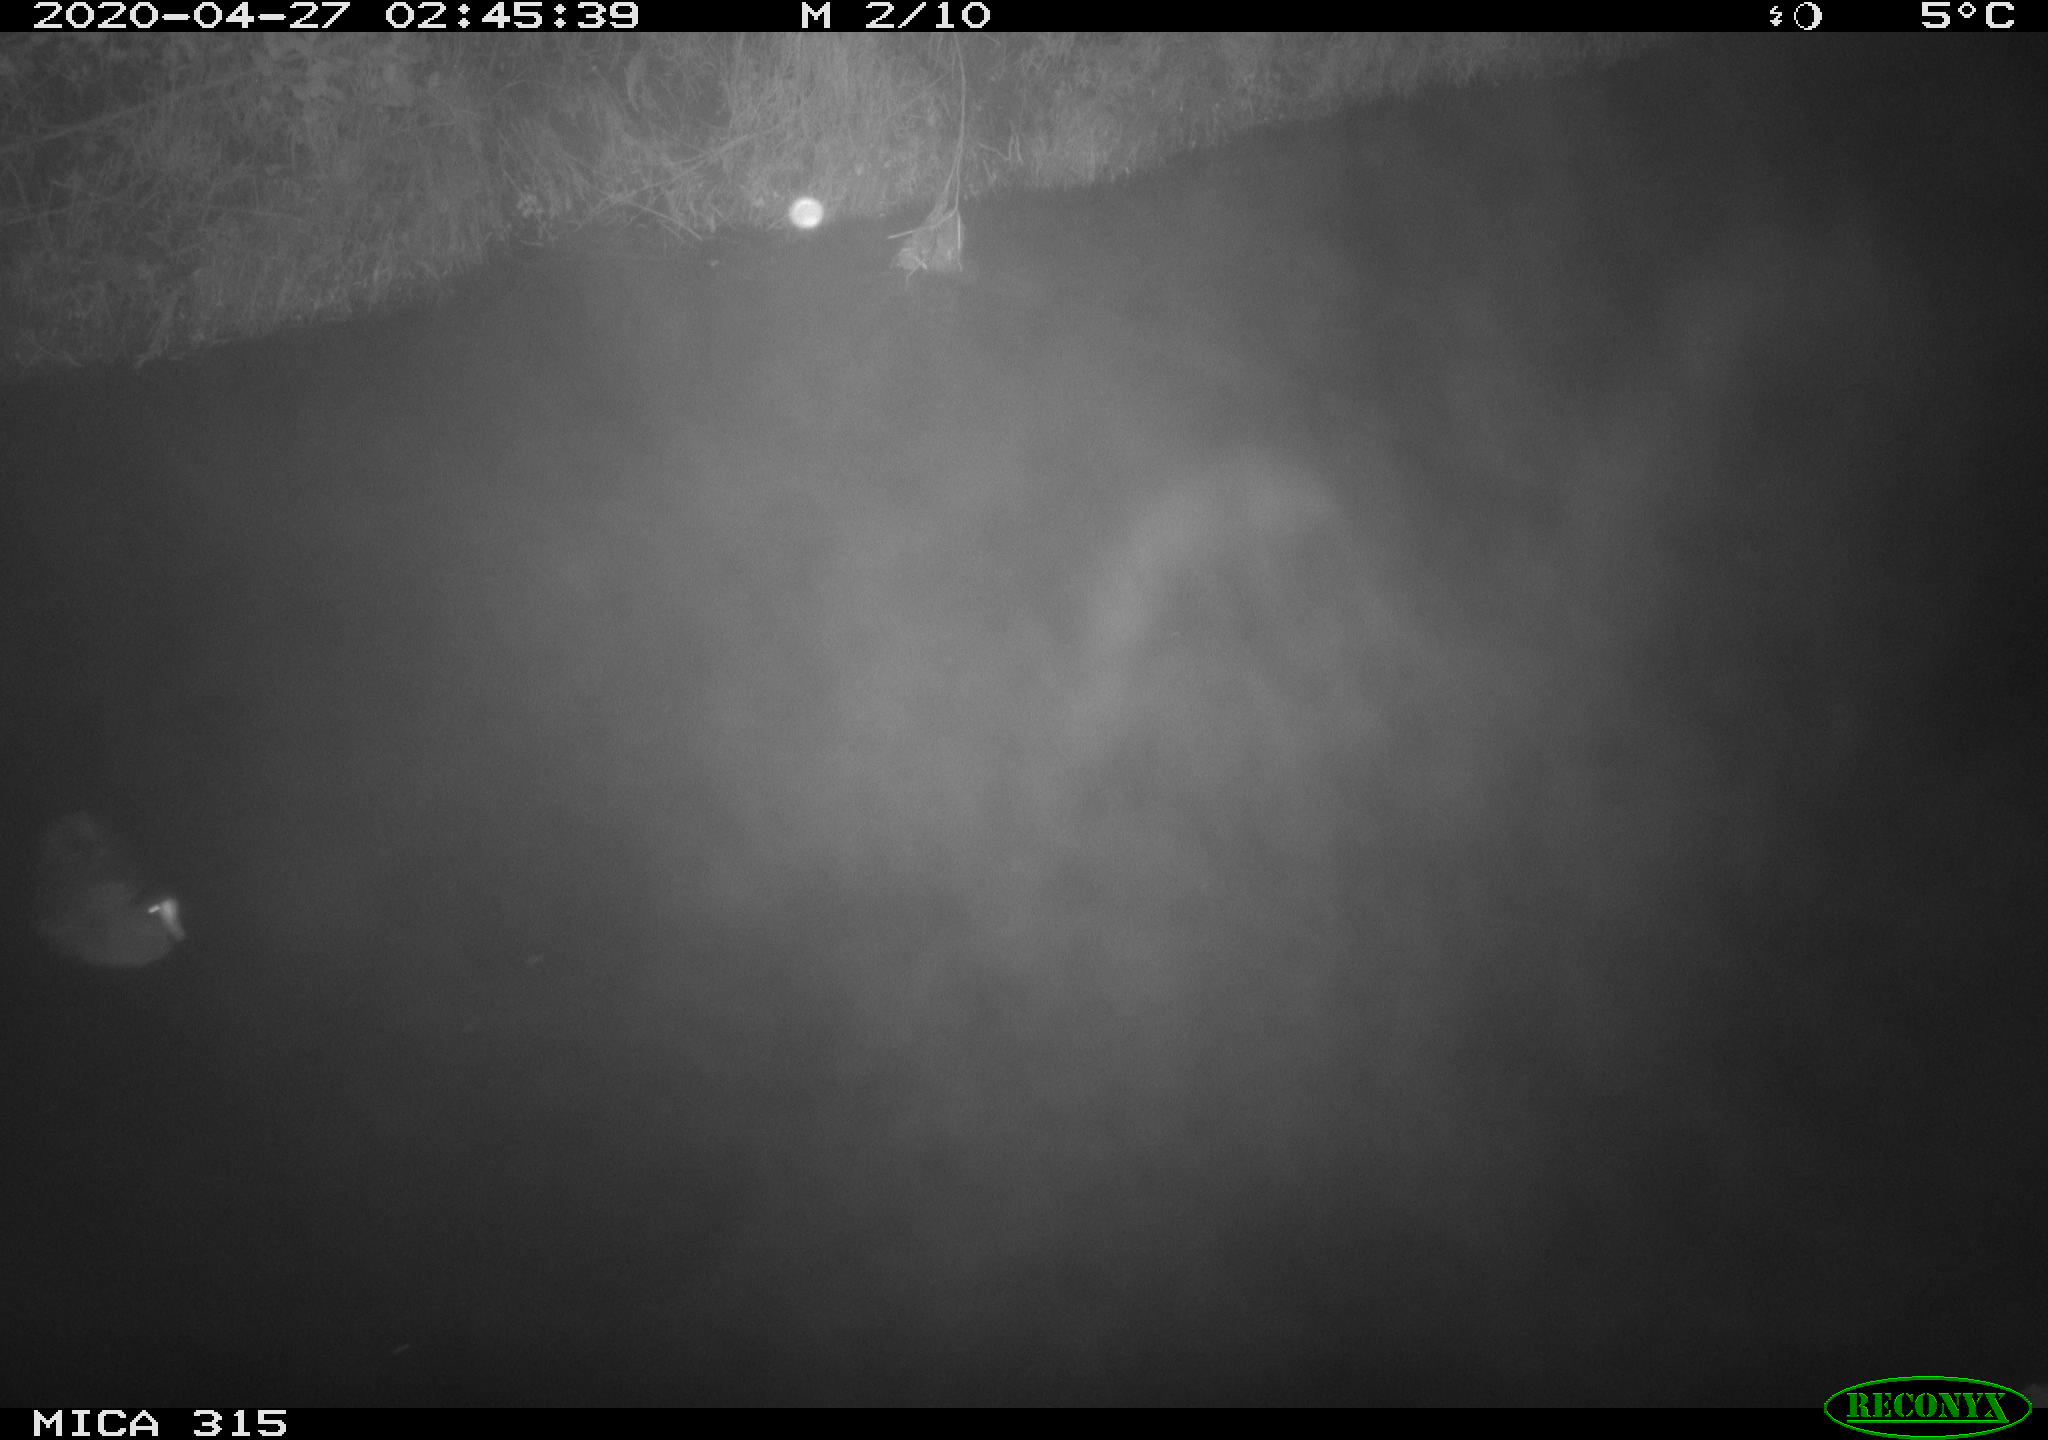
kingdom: Animalia
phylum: Chordata
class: Aves
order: Gruiformes
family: Rallidae
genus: Gallinula
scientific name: Gallinula chloropus
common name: Common moorhen
